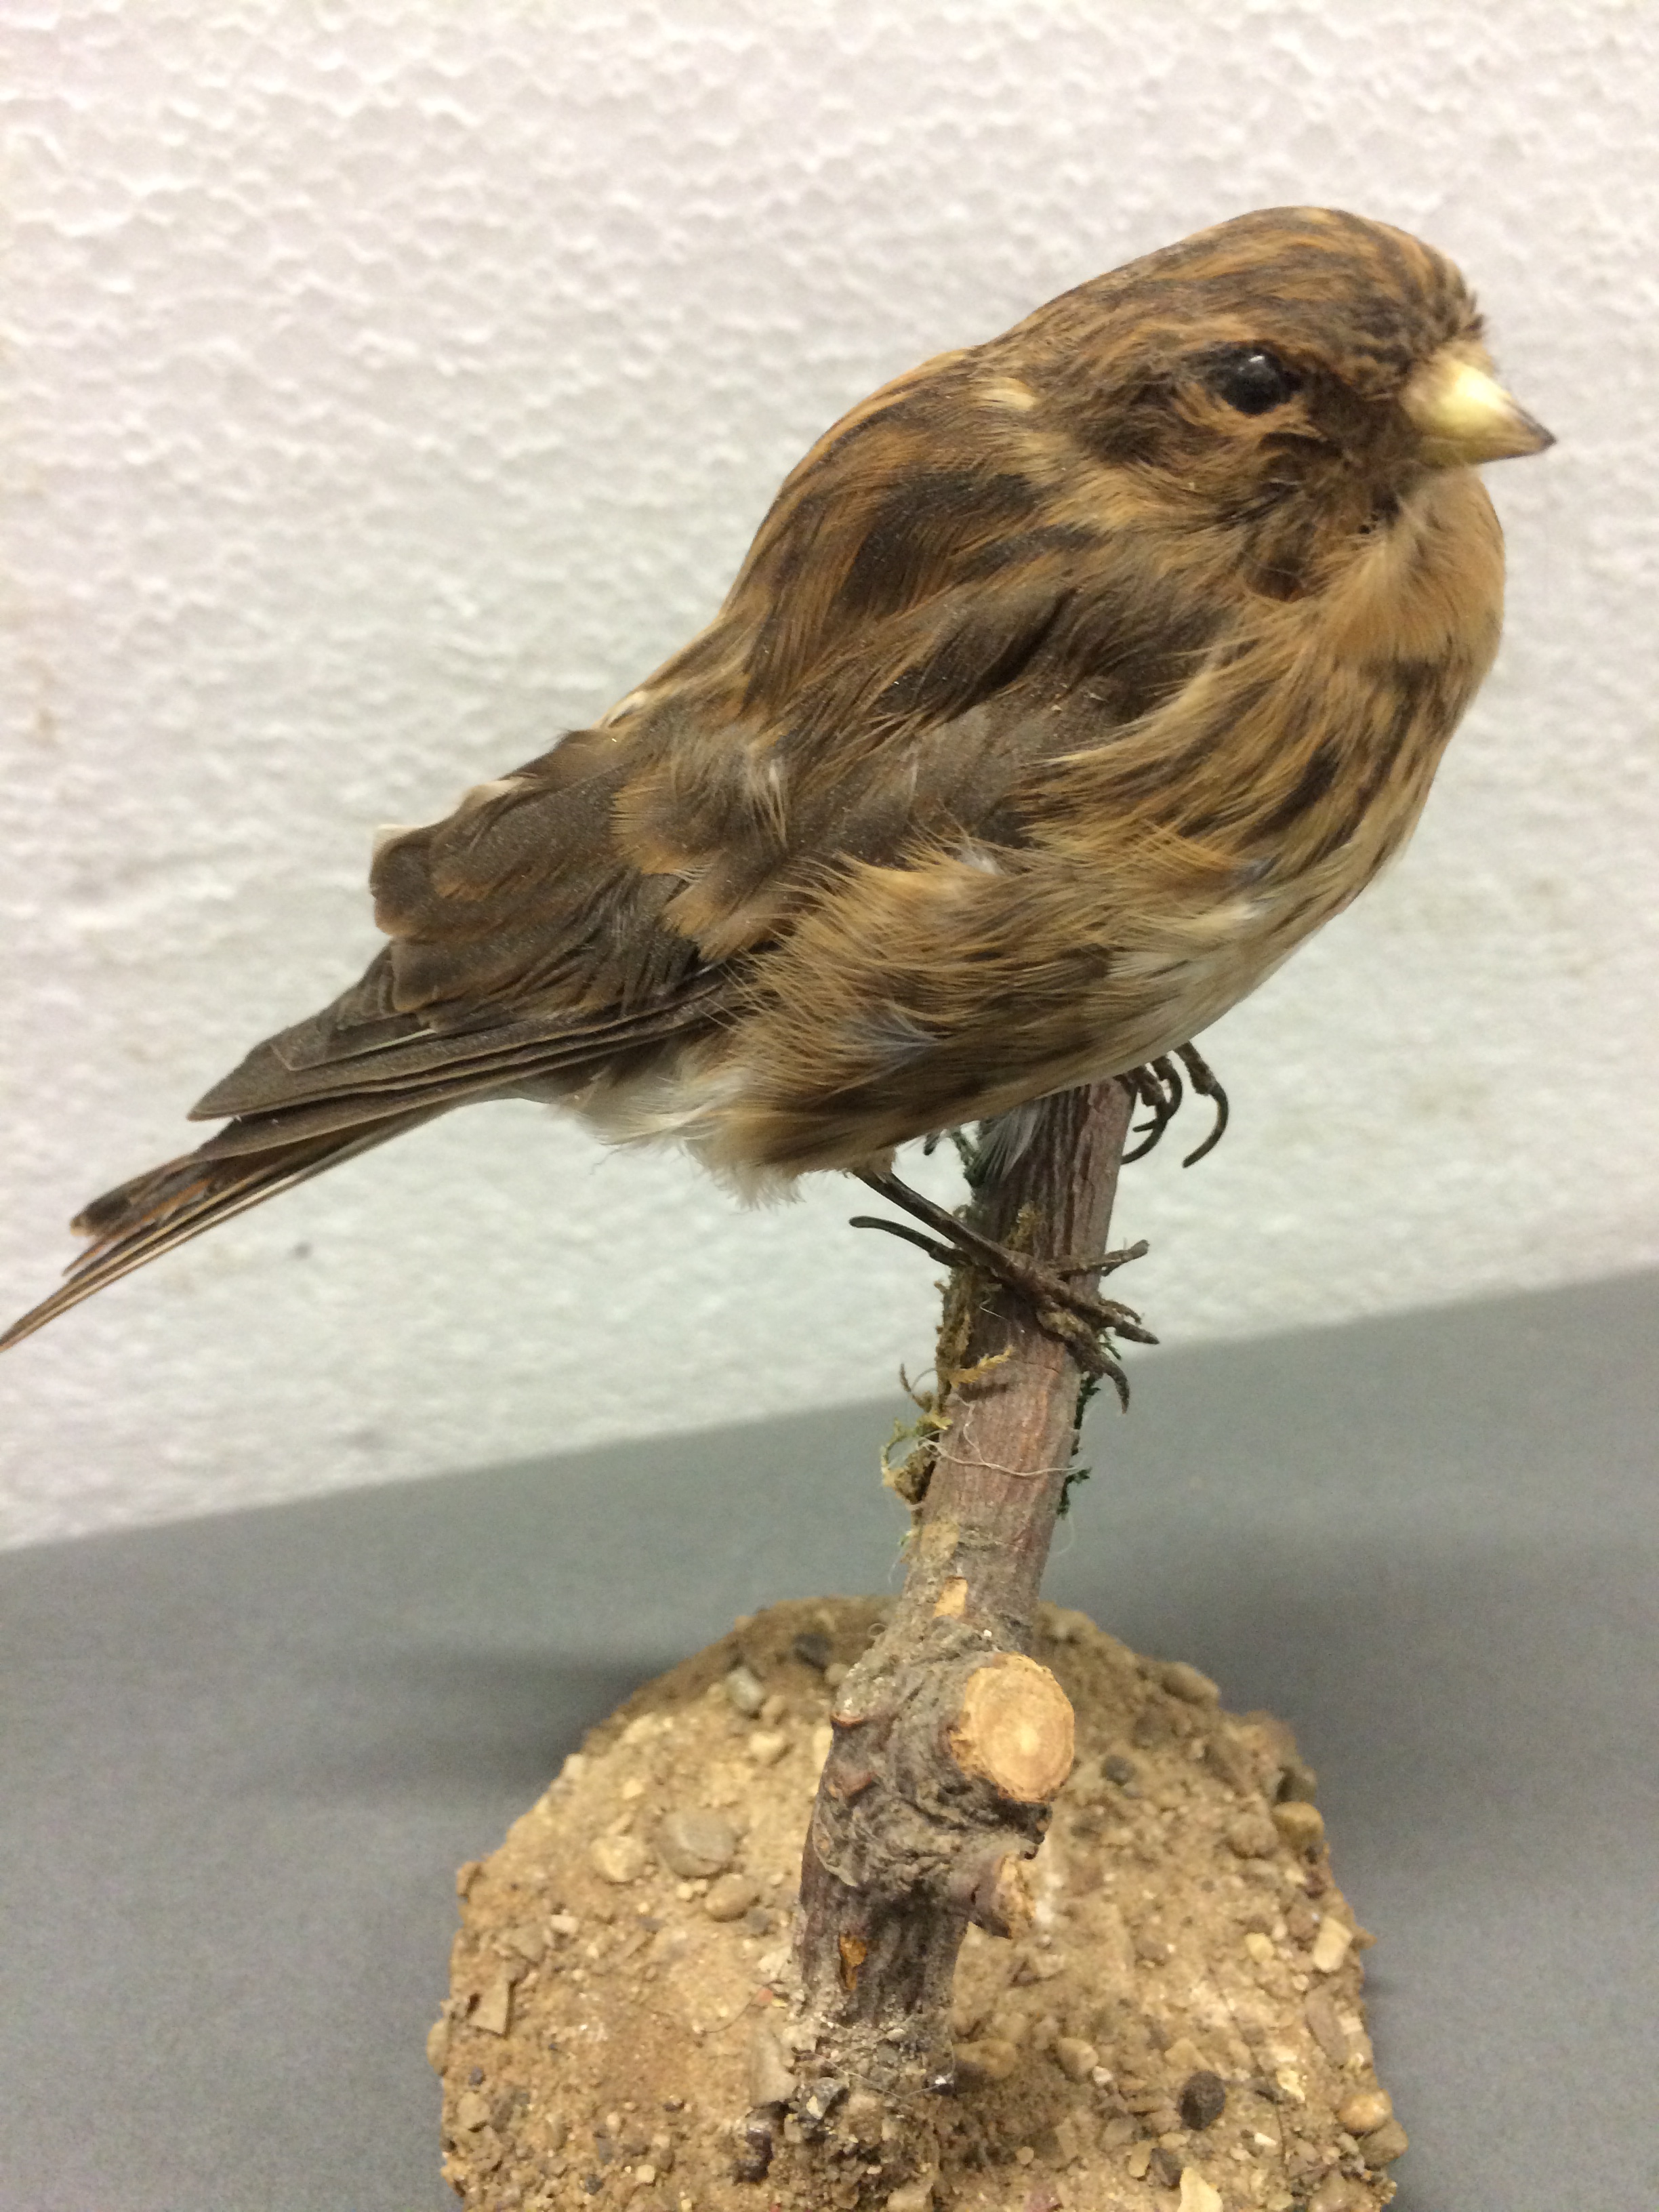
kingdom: Animalia
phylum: Chordata
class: Aves
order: Passeriformes
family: Fringillidae
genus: Linaria
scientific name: Linaria flavirostris
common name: Twite
